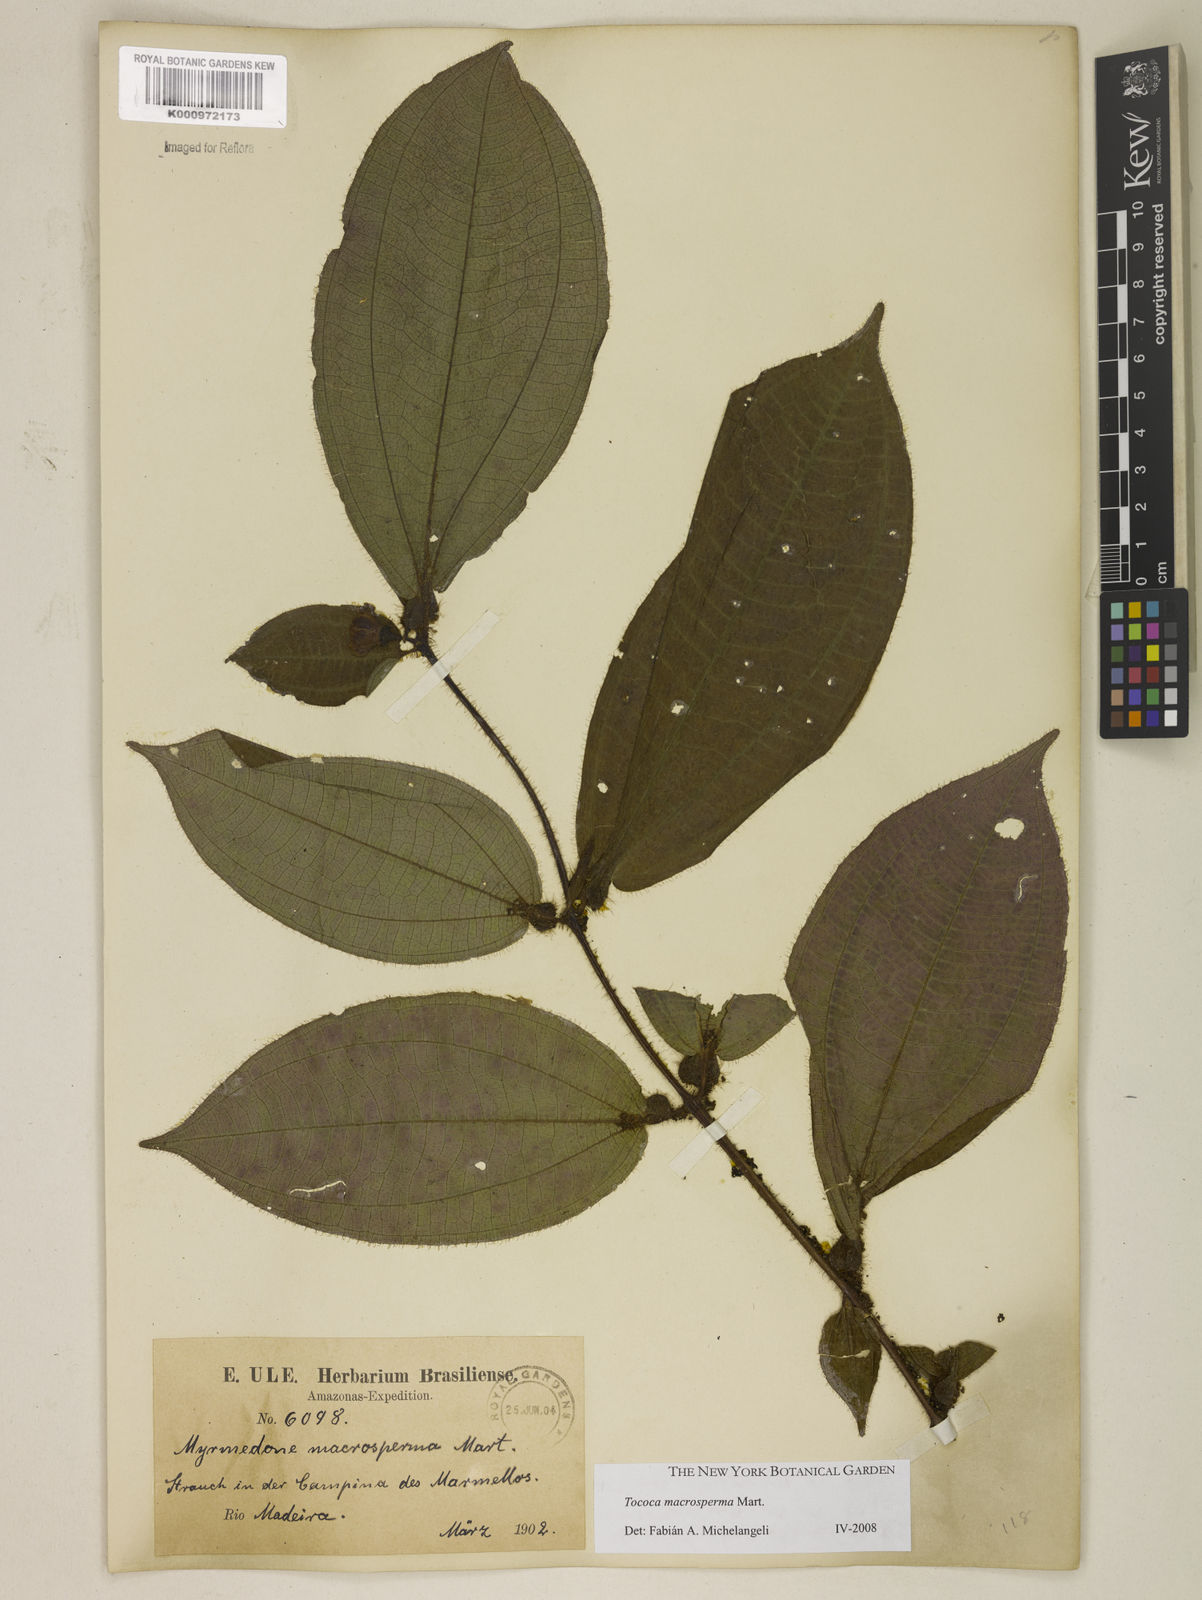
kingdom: Plantae
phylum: Tracheophyta
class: Magnoliopsida
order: Myrtales
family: Melastomataceae
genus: Miconia
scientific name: Miconia macrosperma
